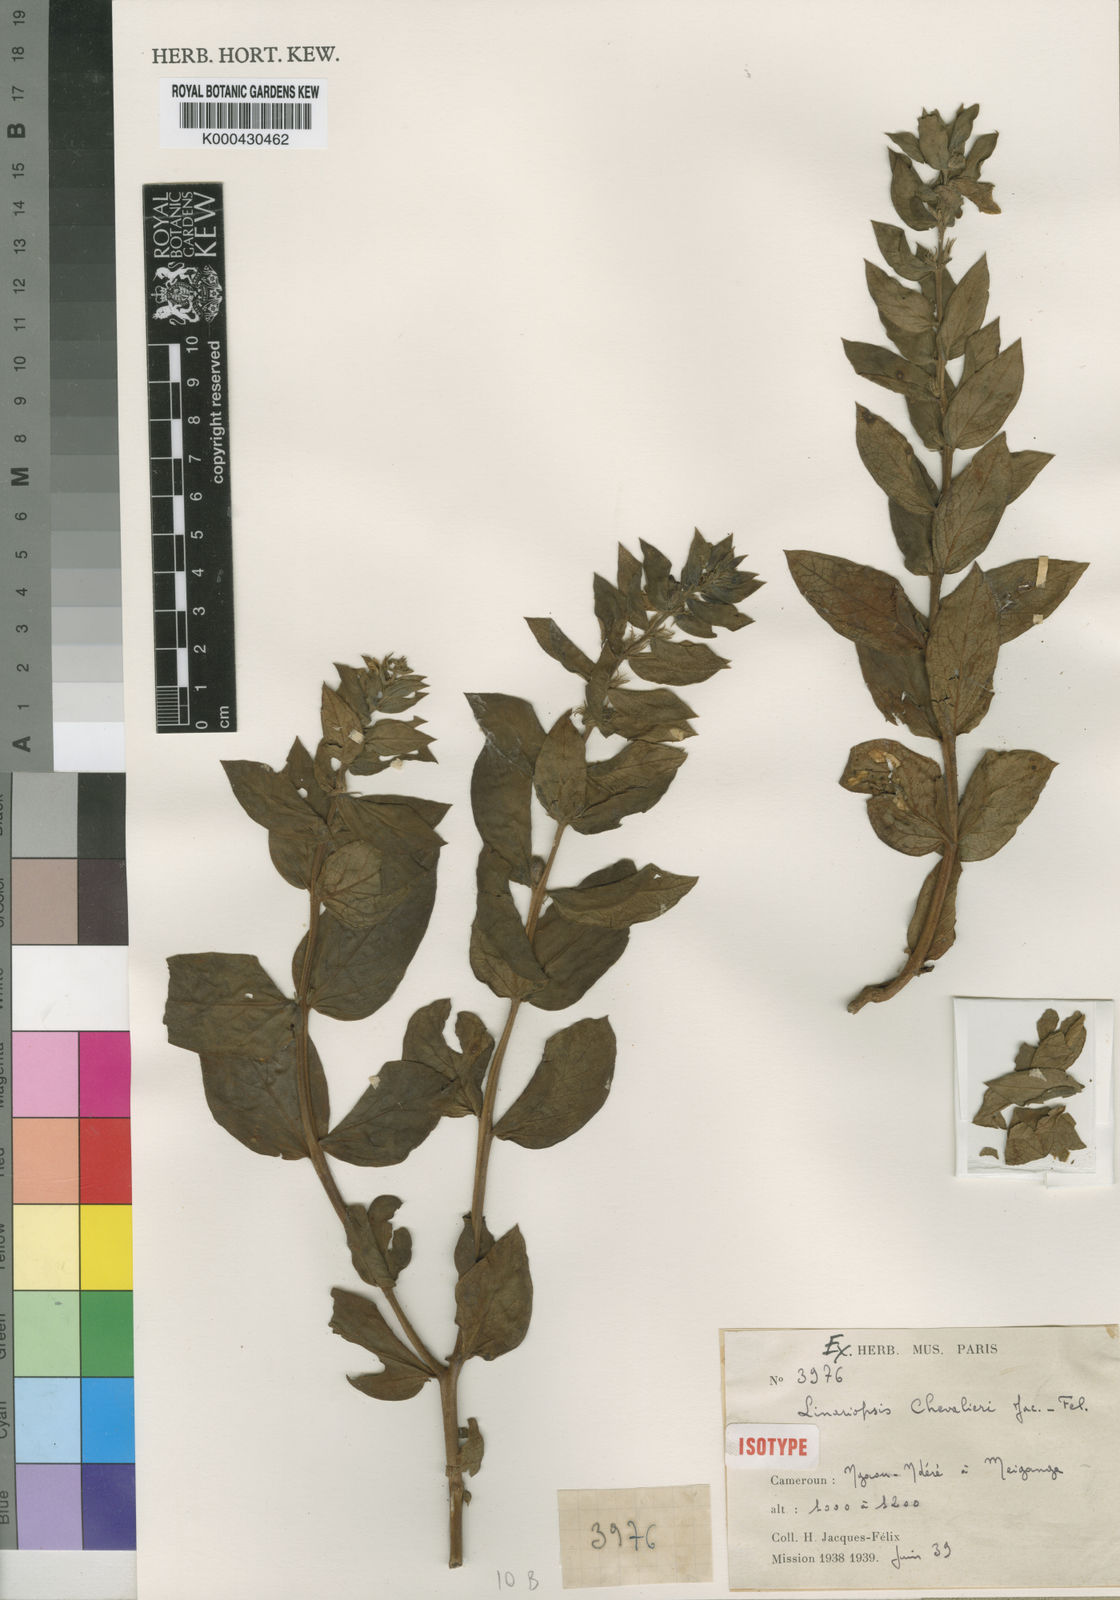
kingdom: Plantae
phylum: Tracheophyta
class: Magnoliopsida
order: Lamiales
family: Pedaliaceae
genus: Linariopsis
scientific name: Linariopsis
